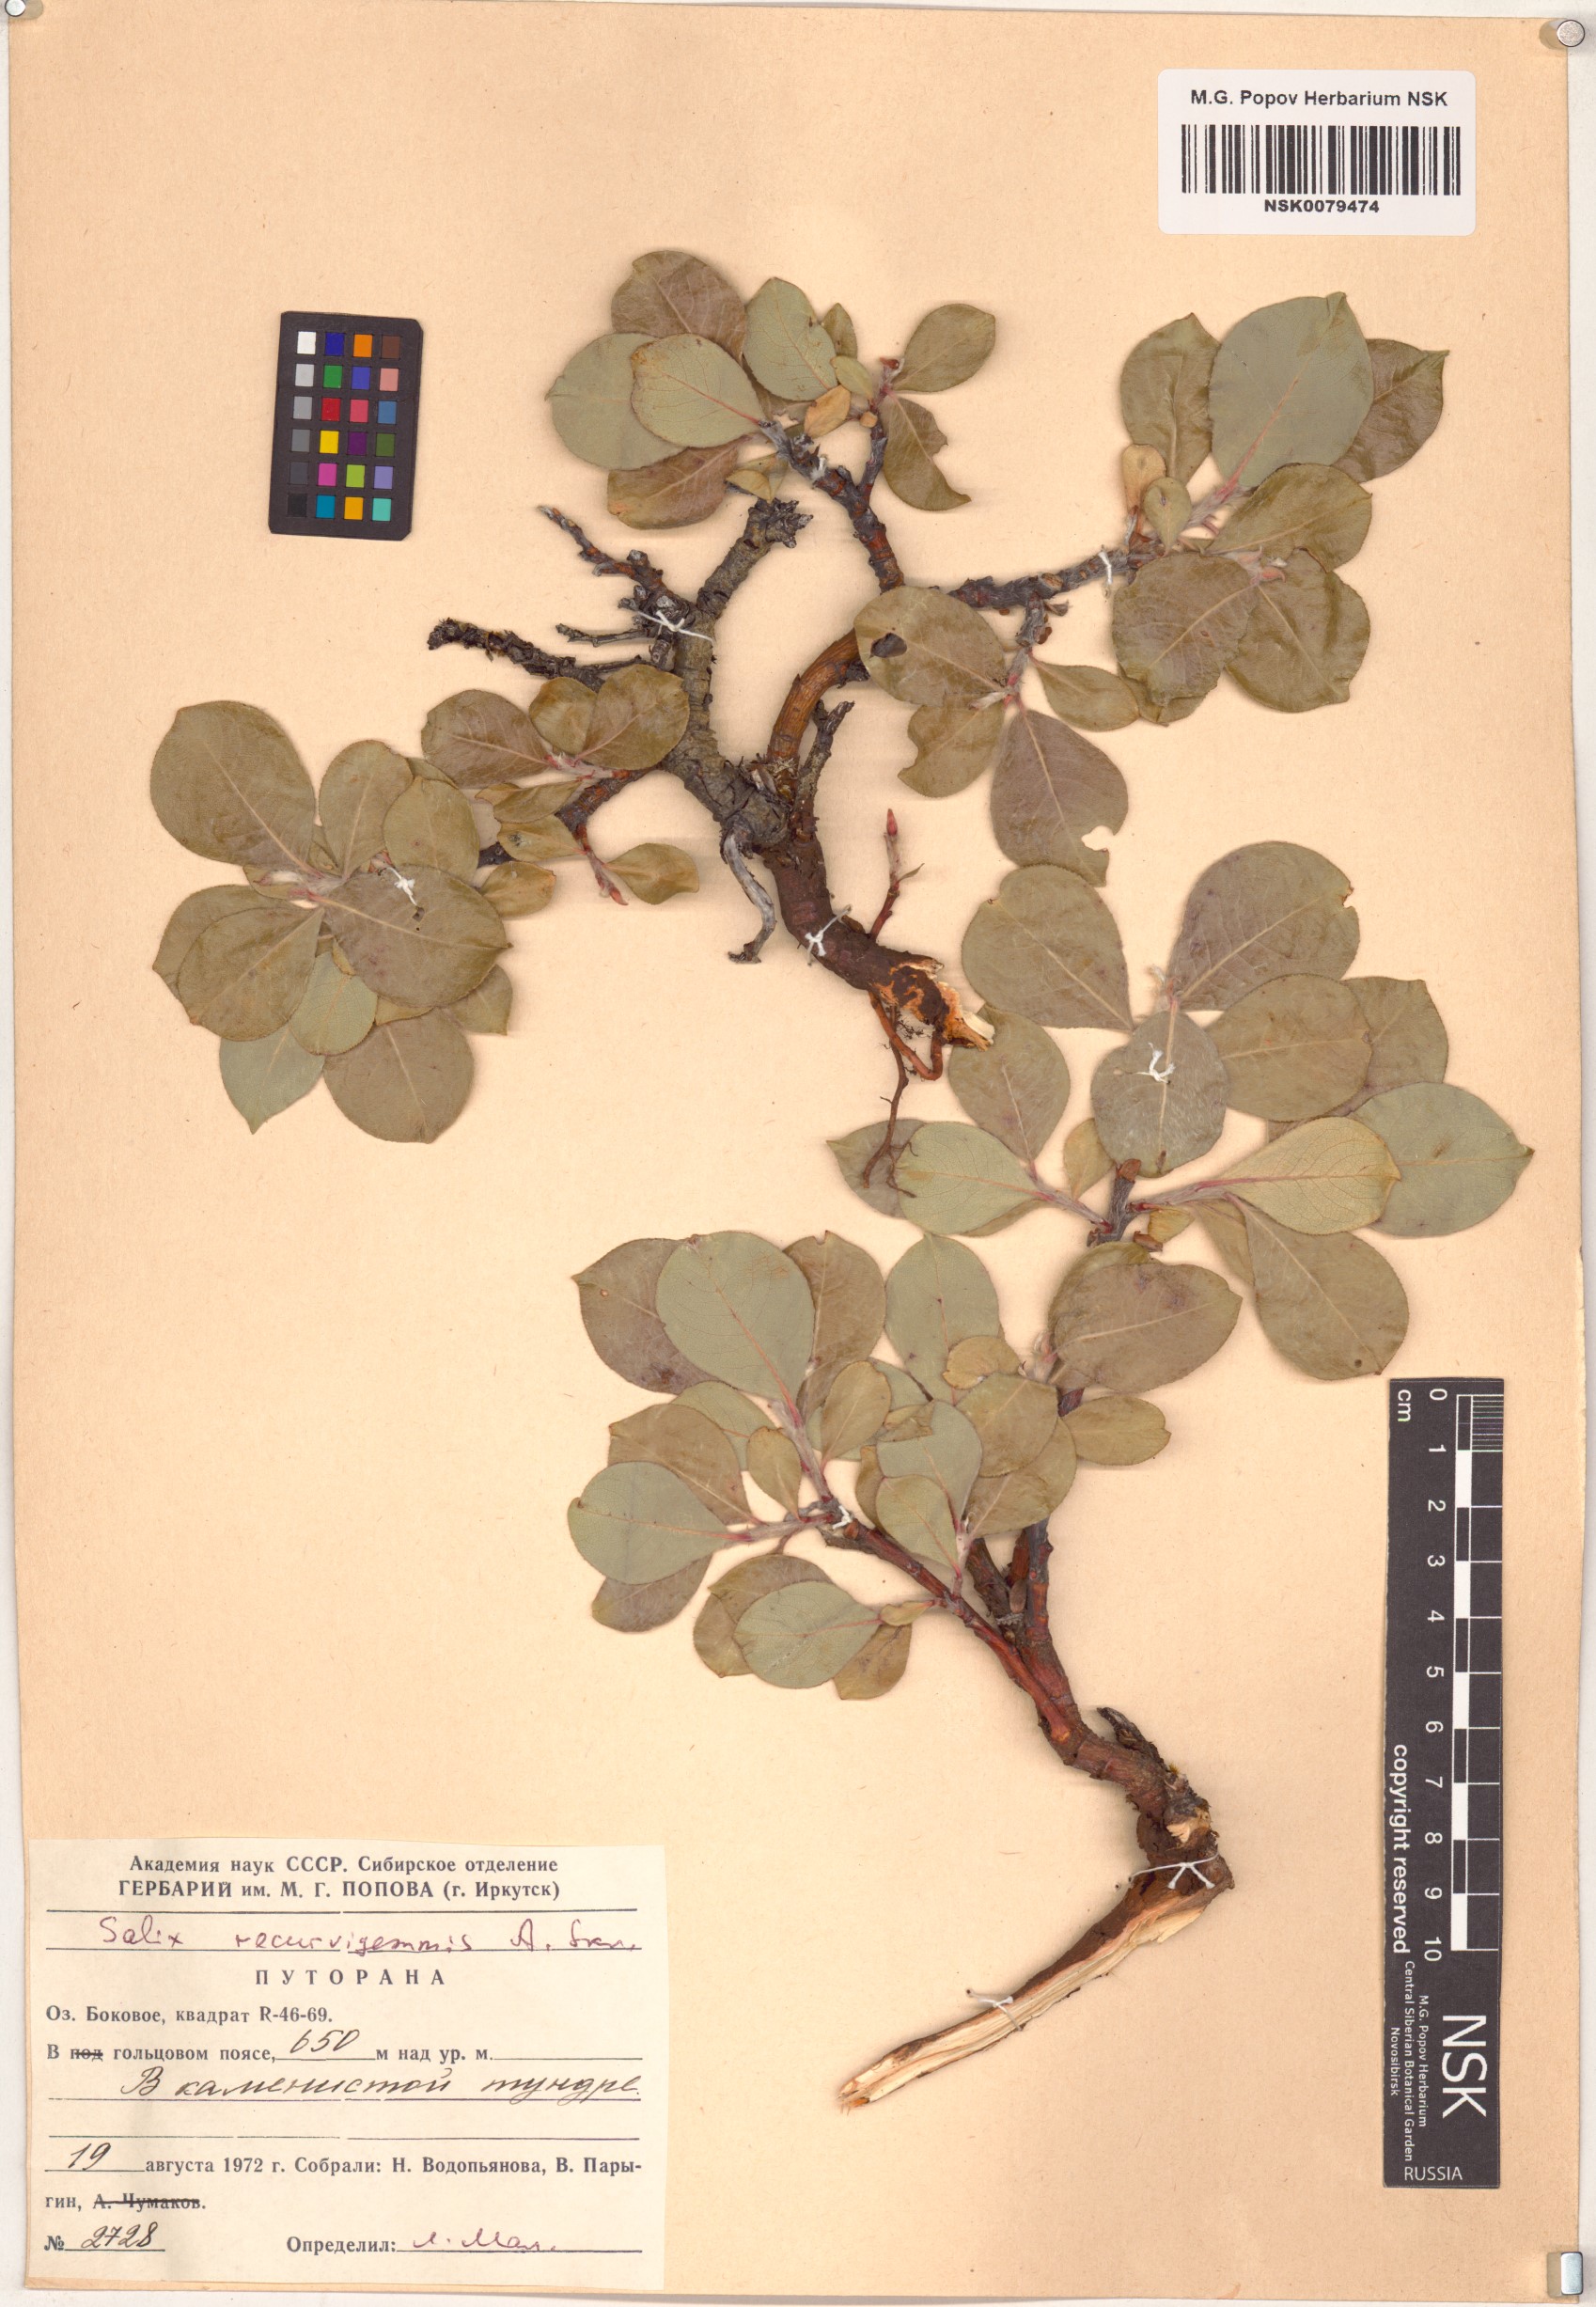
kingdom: Plantae
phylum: Tracheophyta
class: Magnoliopsida
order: Malpighiales
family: Salicaceae
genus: Salix
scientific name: Salix recurvigemmata
